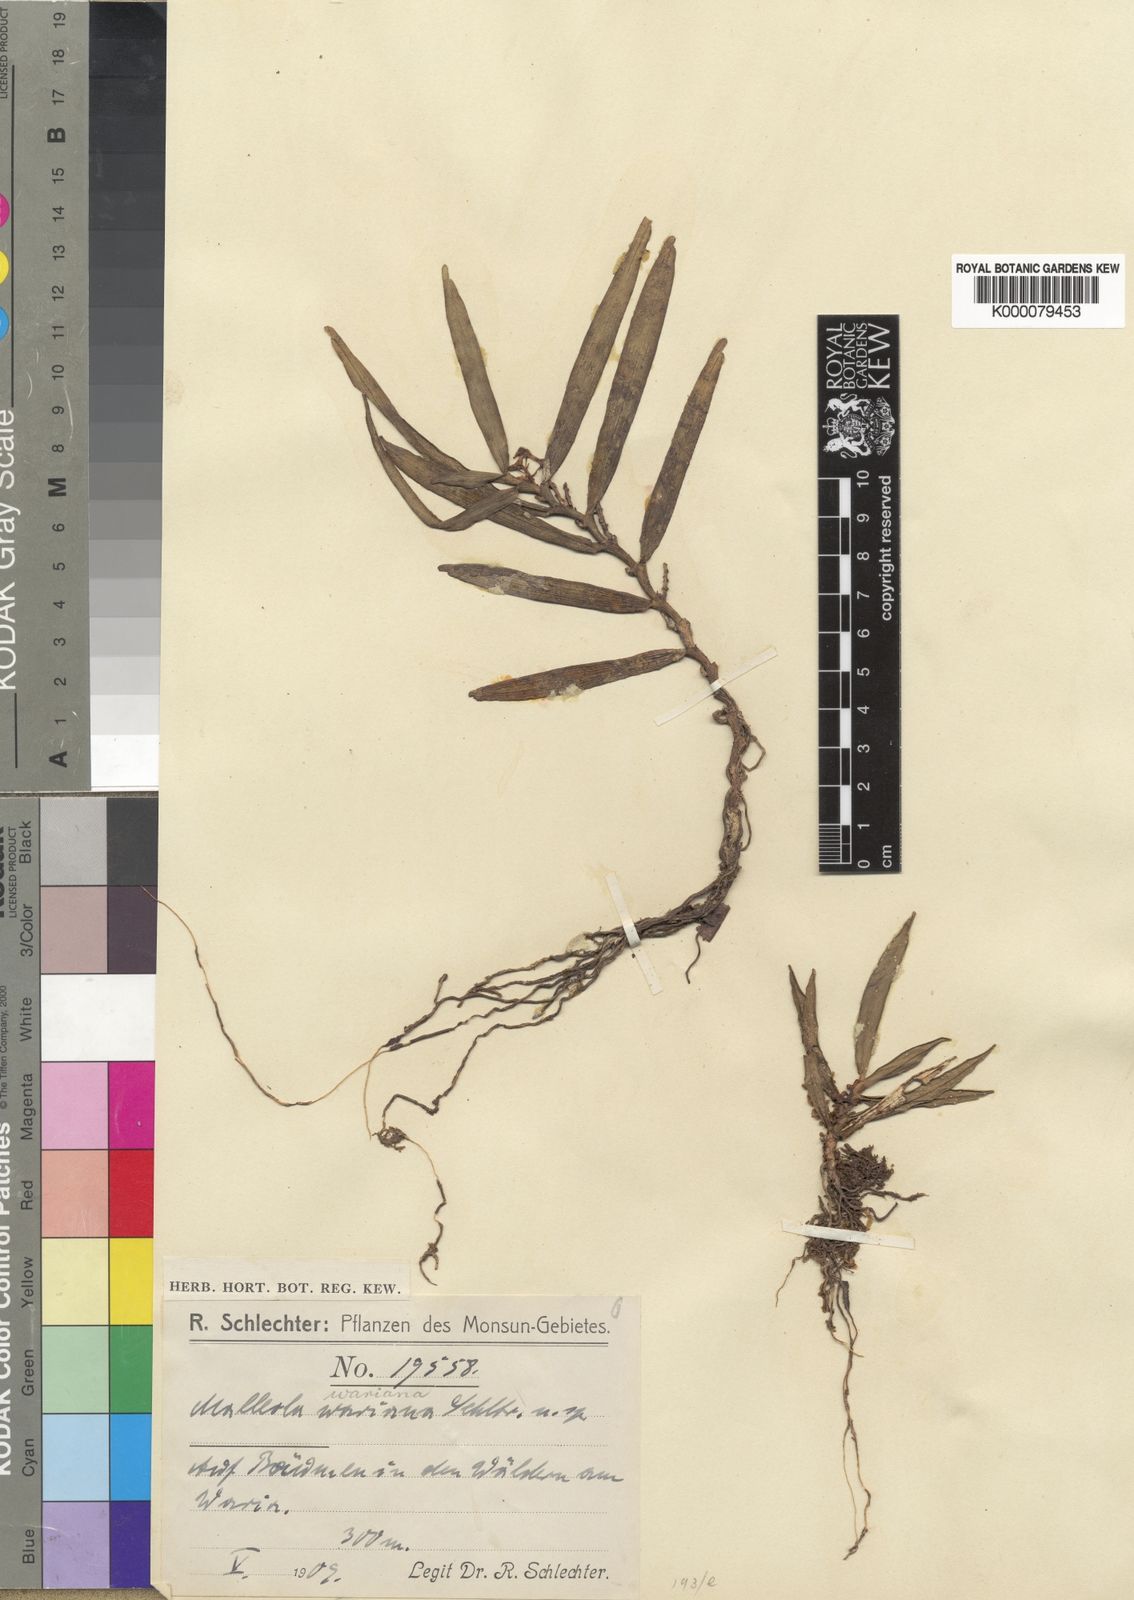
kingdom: Plantae
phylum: Tracheophyta
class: Liliopsida
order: Asparagales
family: Orchidaceae
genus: Robiquetia
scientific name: Robiquetia wariana
